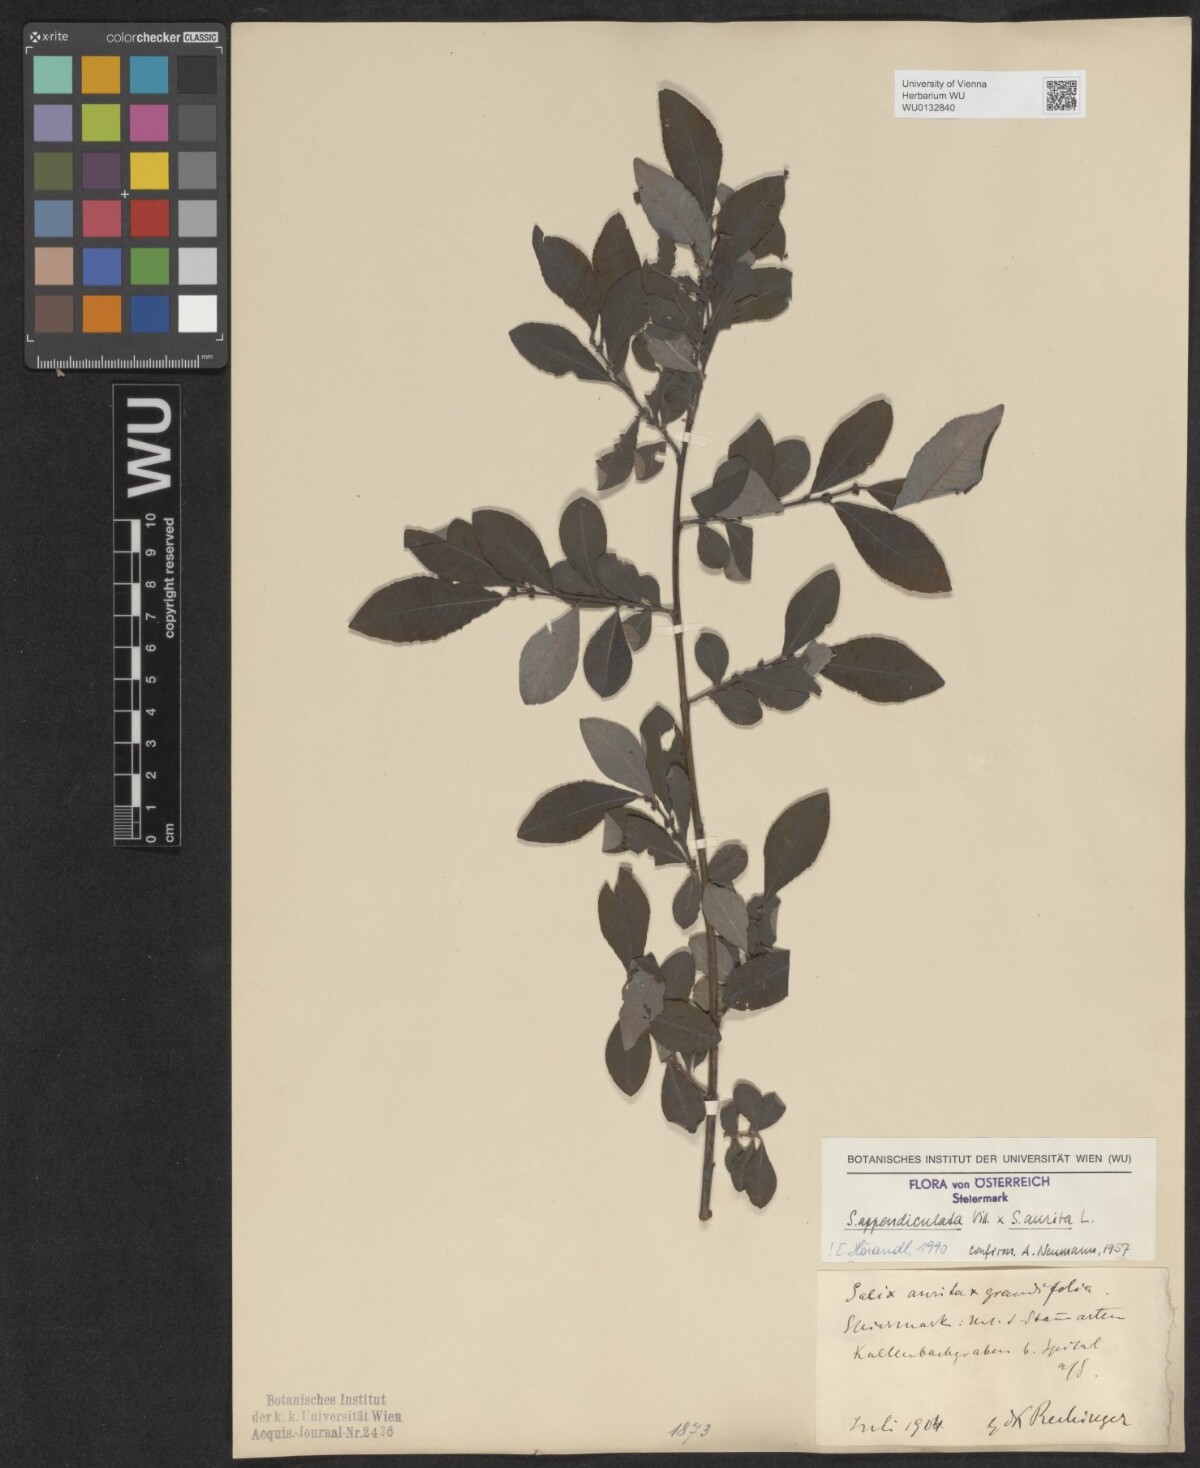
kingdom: Plantae
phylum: Tracheophyta
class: Magnoliopsida
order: Malpighiales
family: Salicaceae
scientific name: Salicaceae
